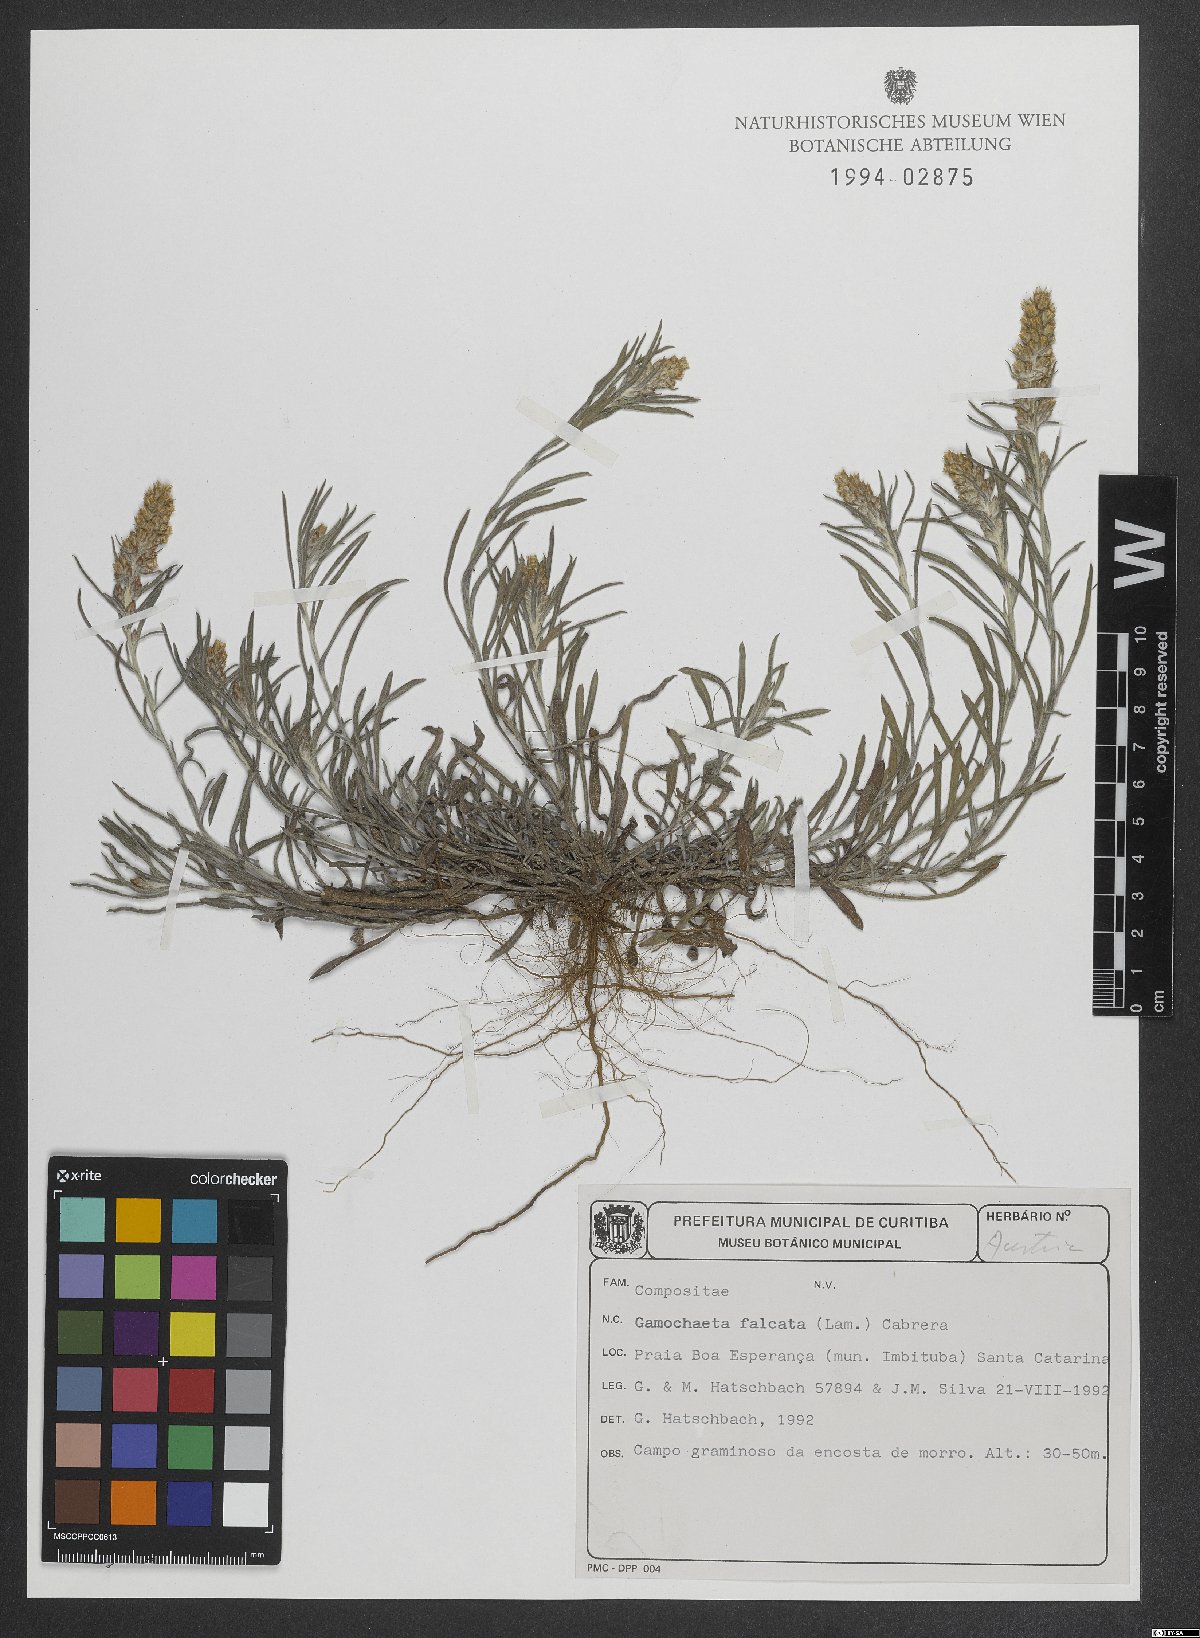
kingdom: Plantae
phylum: Tracheophyta
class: Magnoliopsida
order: Asterales
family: Asteraceae
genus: Gamochaeta
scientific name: Gamochaeta falcata
